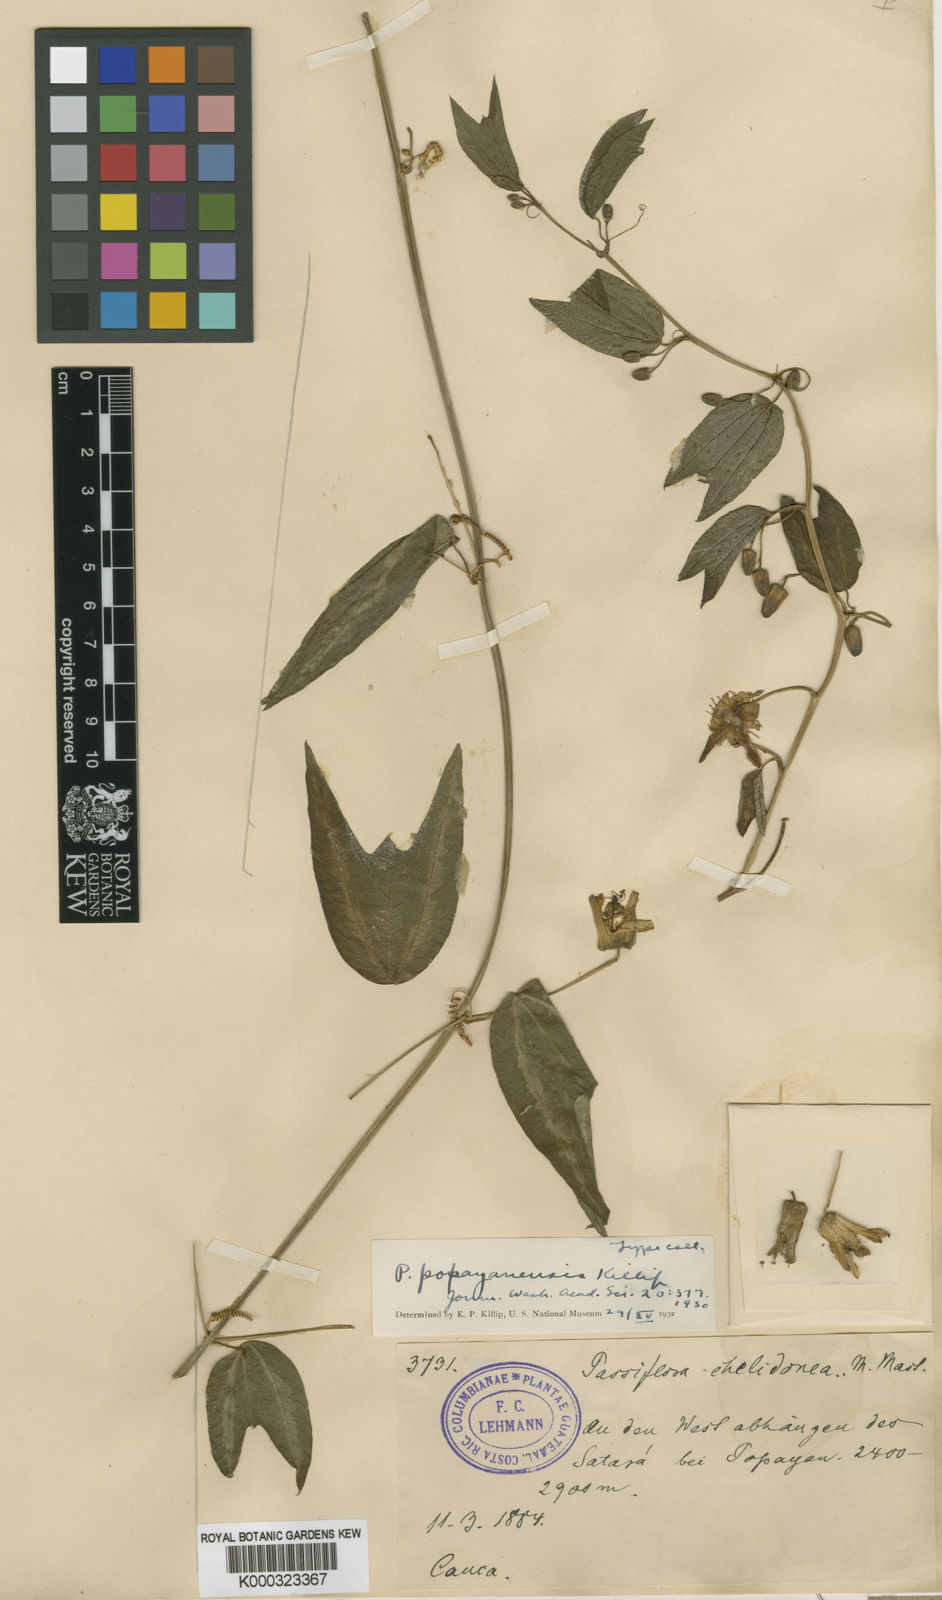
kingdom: Plantae
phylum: Tracheophyta
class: Magnoliopsida
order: Malpighiales
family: Passifloraceae
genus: Passiflora
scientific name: Passiflora popayanensis
